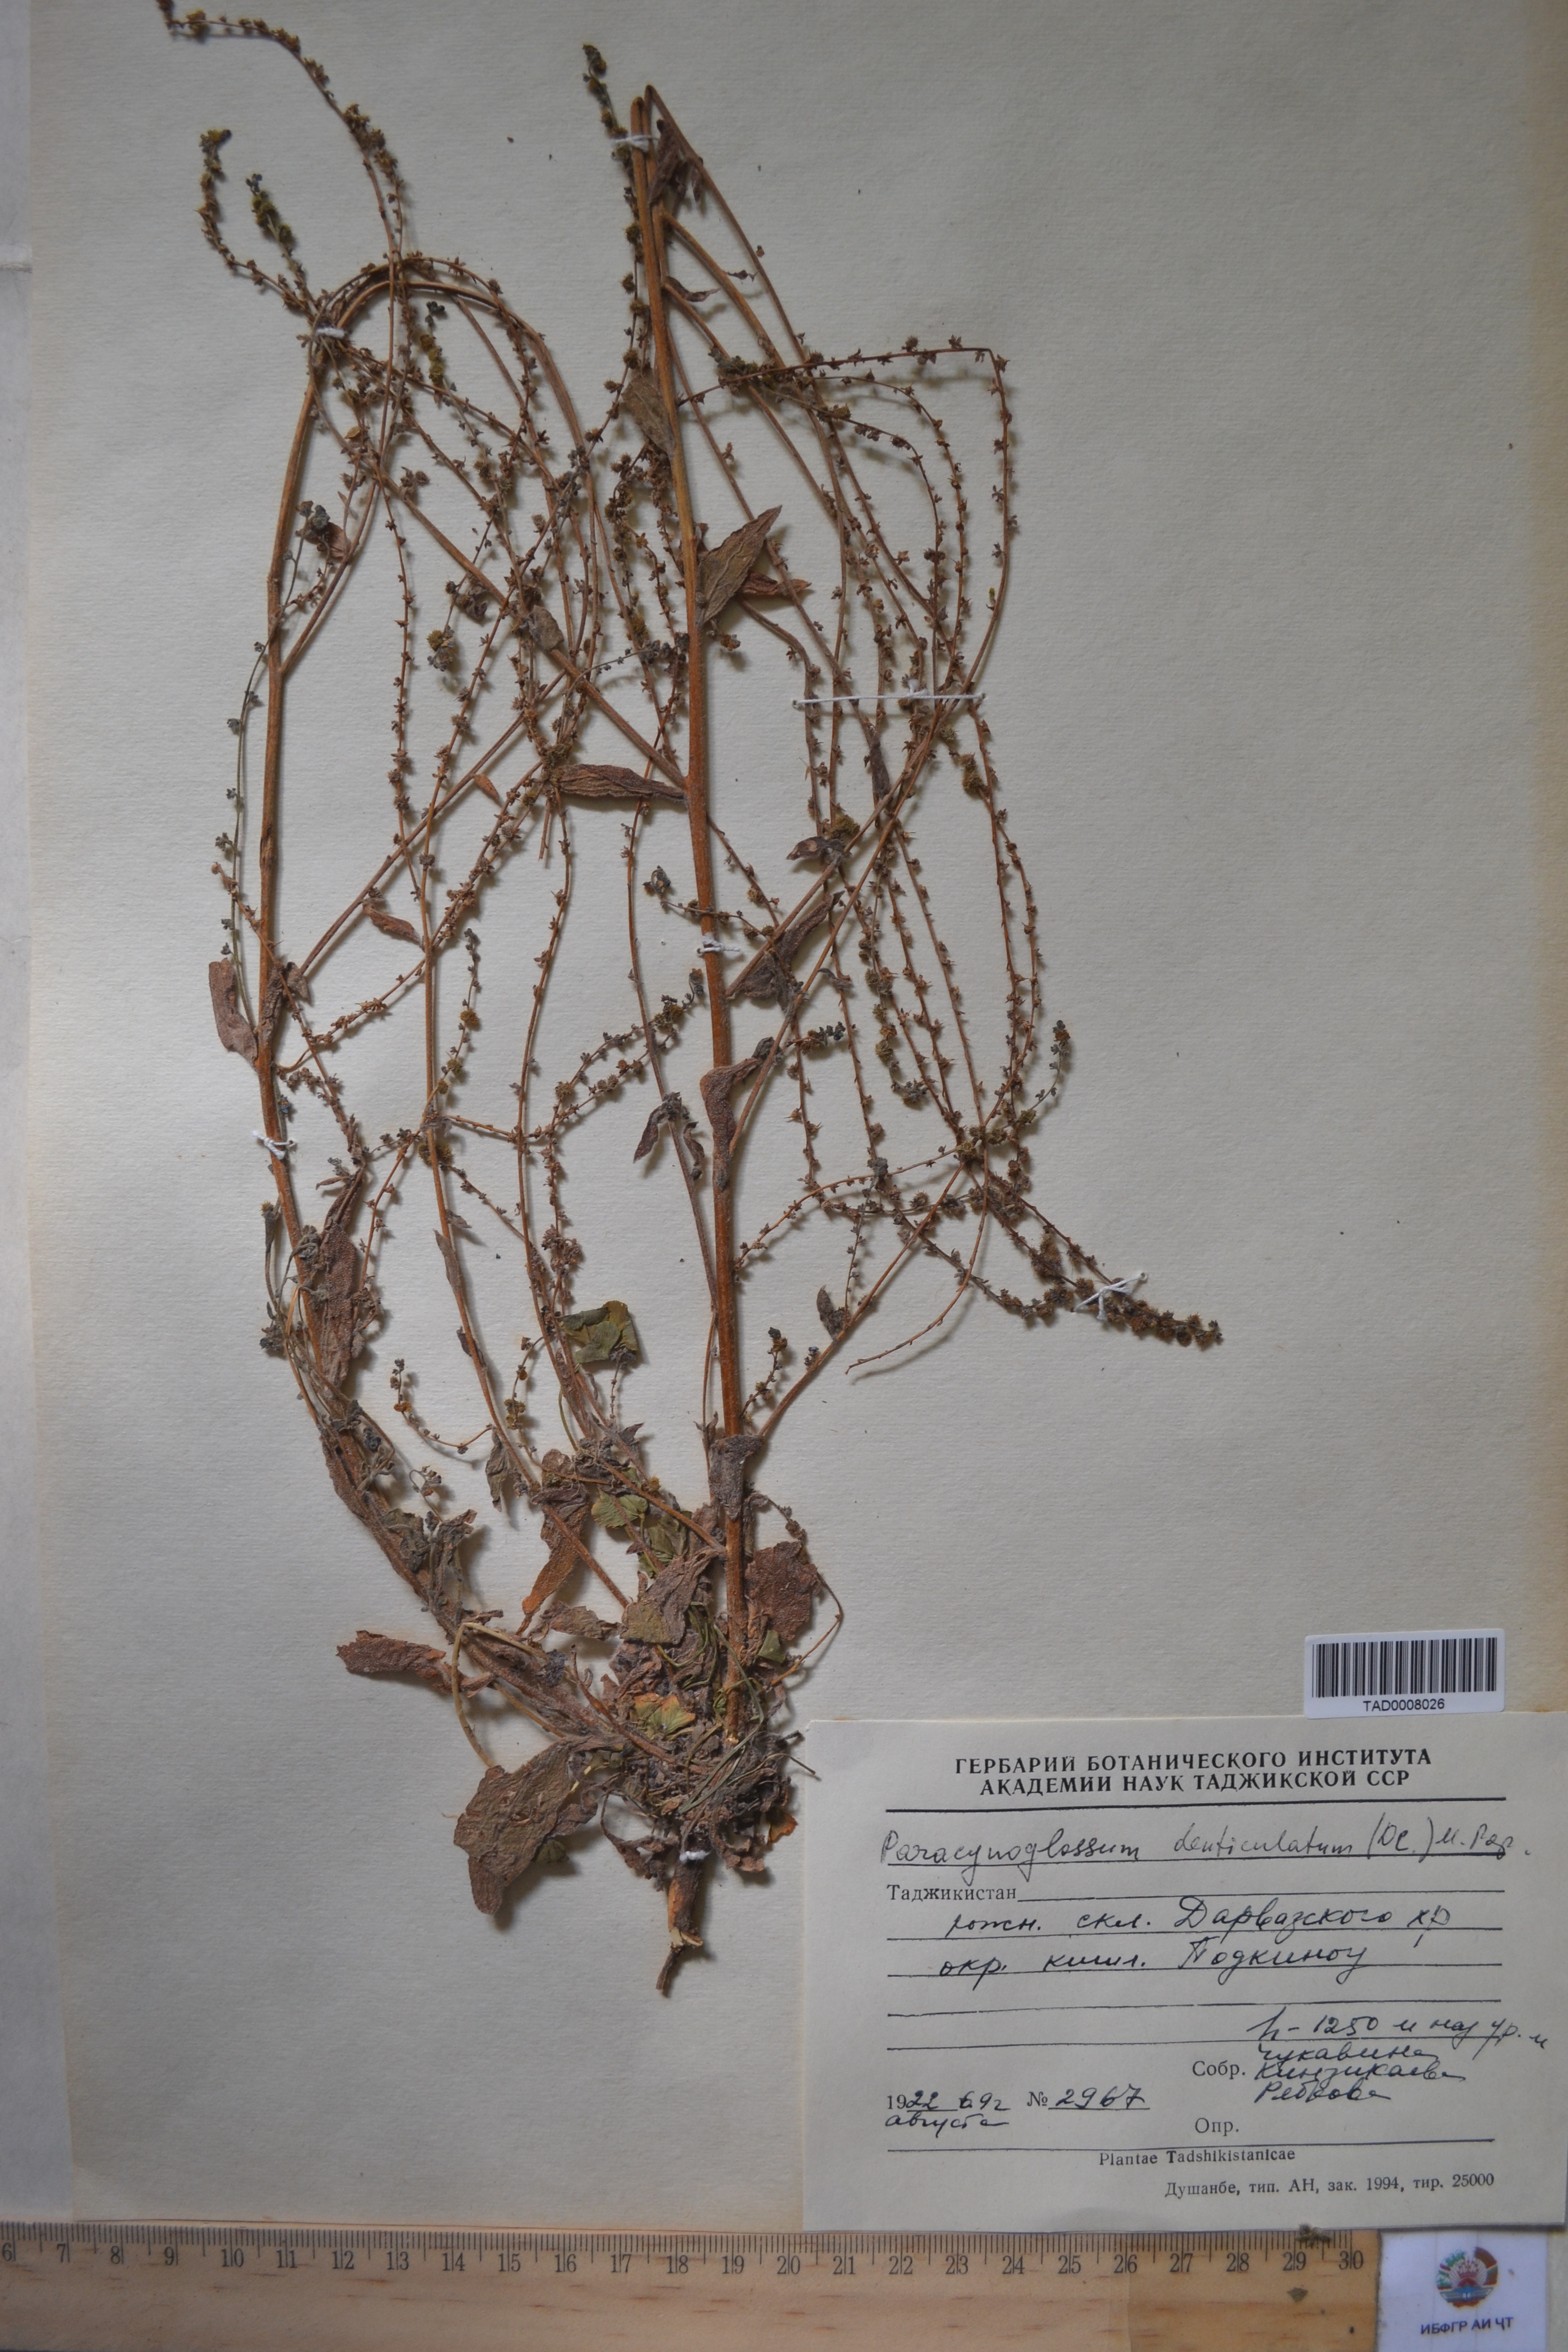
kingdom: Plantae
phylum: Tracheophyta
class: Magnoliopsida
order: Boraginales
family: Boraginaceae
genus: Paracynoglossum
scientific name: Paracynoglossum glochidiatum
